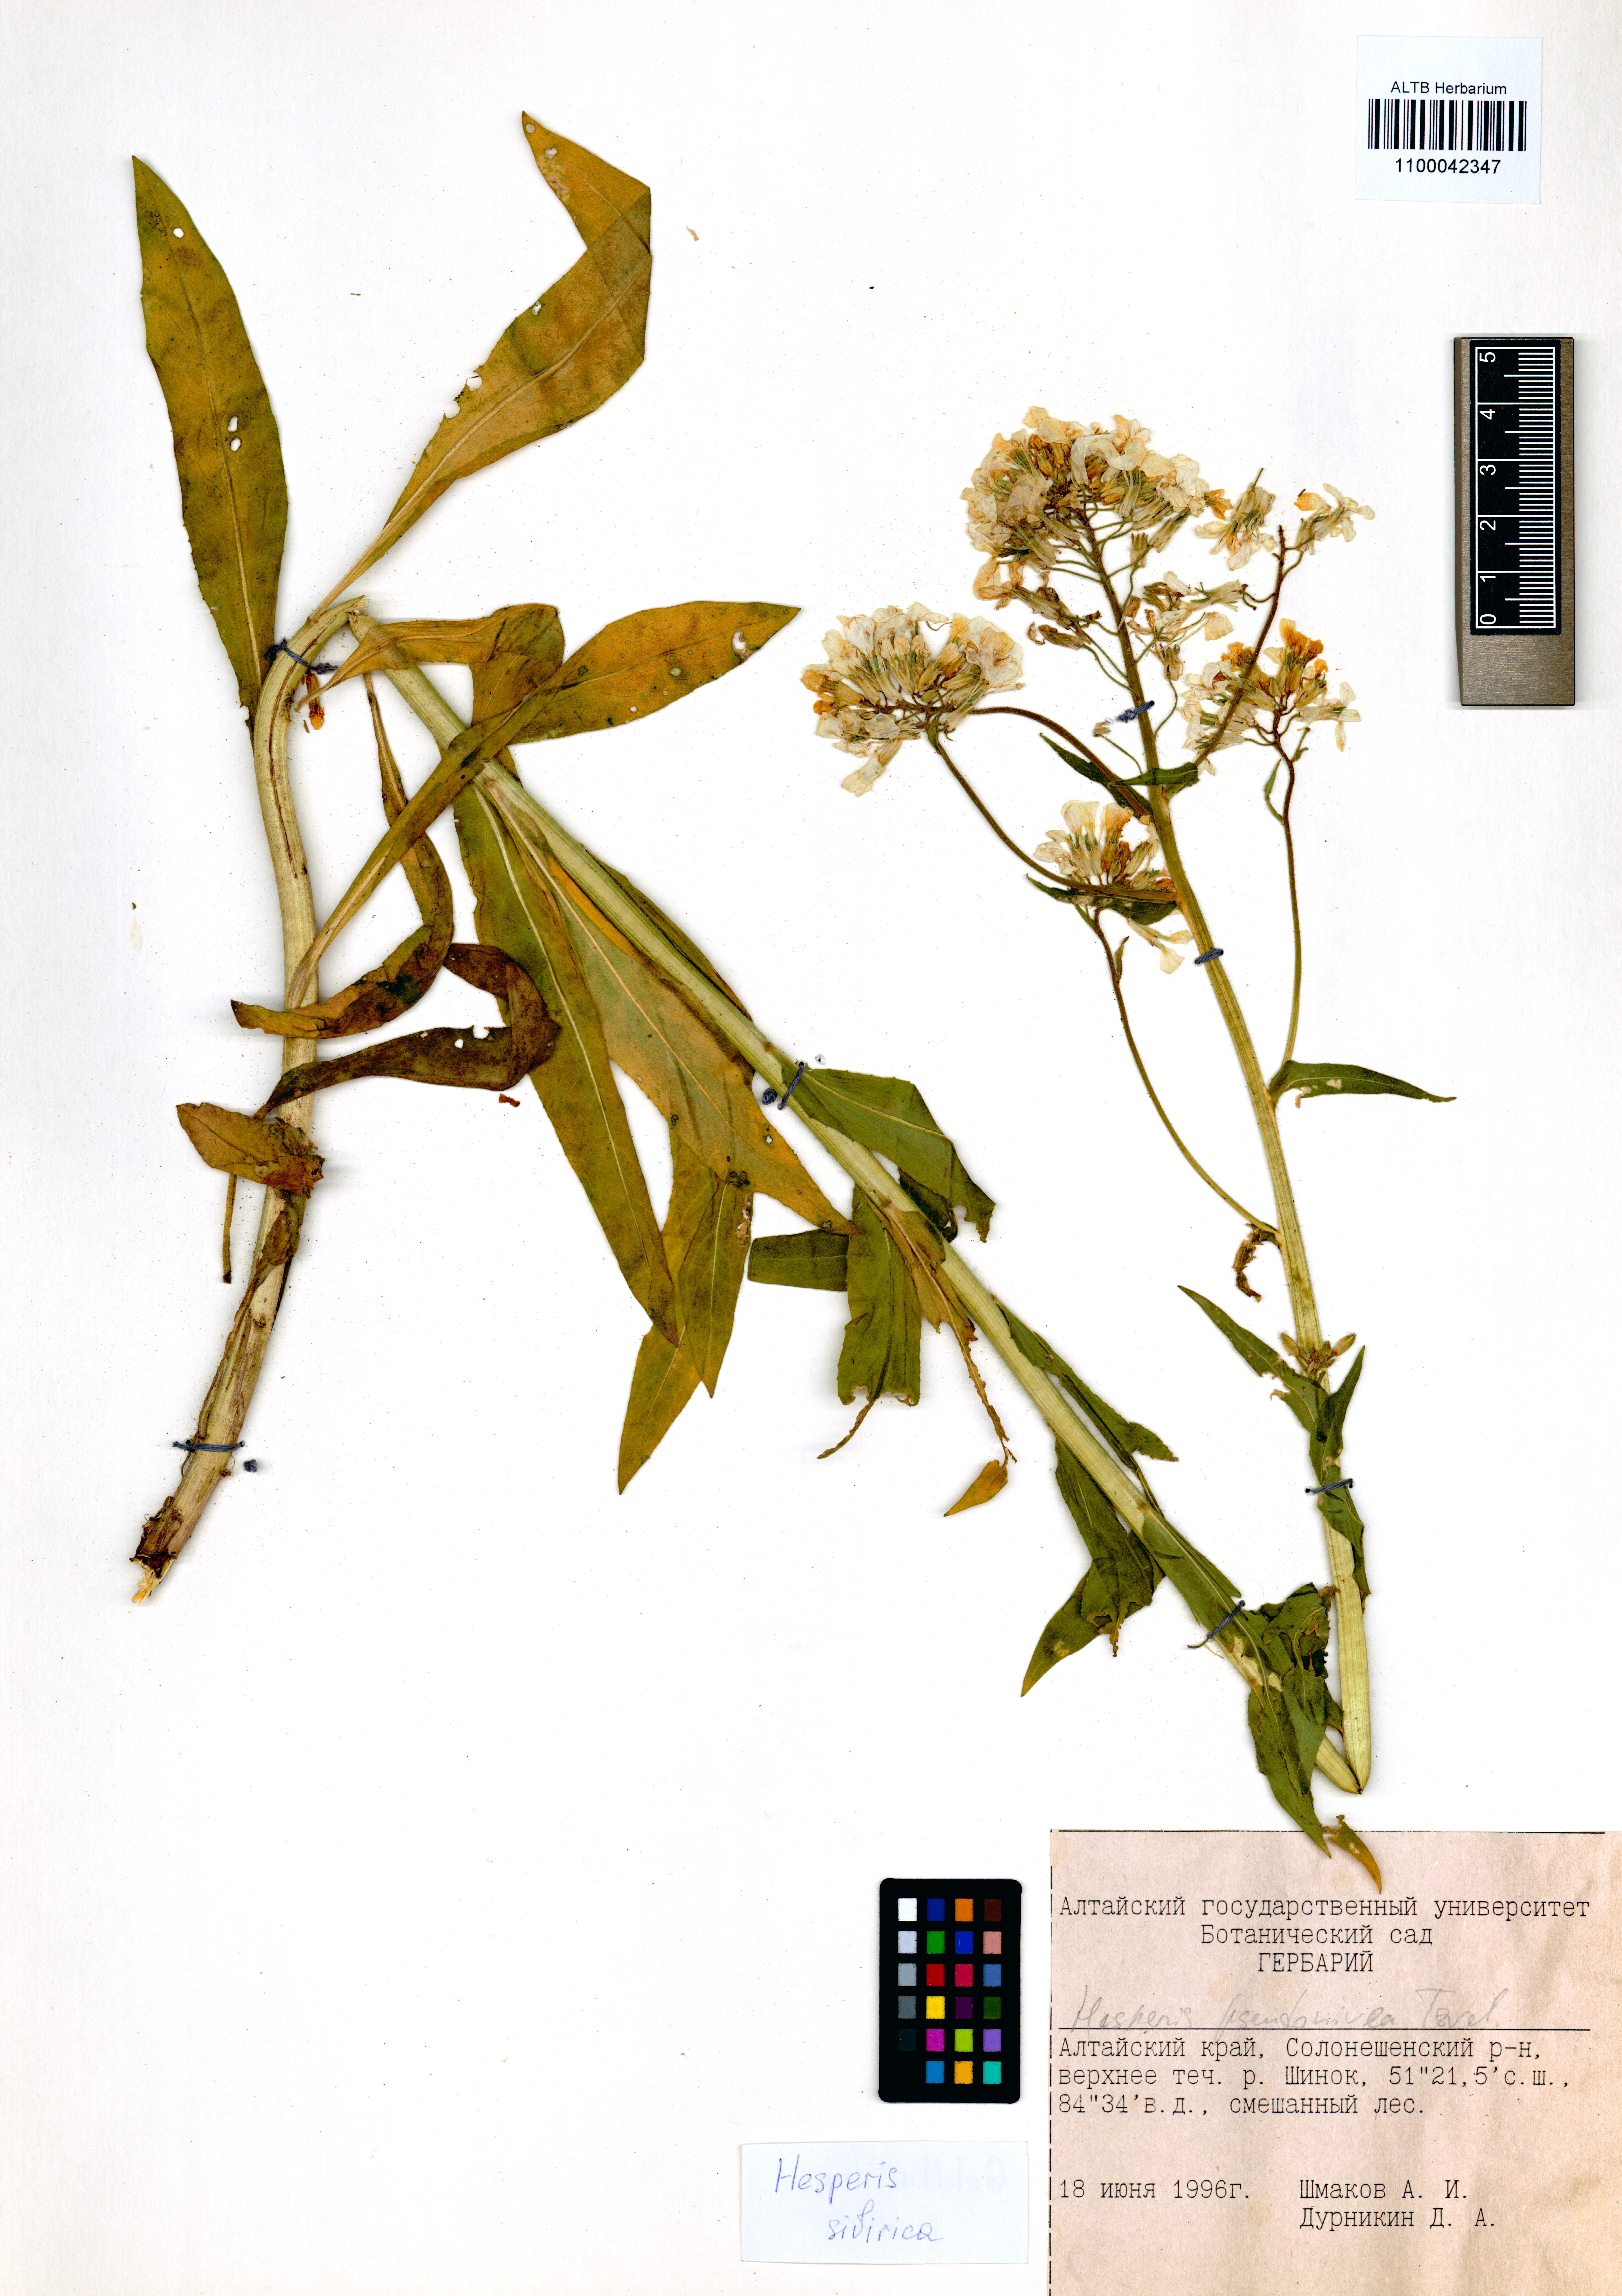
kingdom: Plantae
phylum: Tracheophyta
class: Magnoliopsida
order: Brassicales
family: Brassicaceae
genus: Hesperis
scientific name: Hesperis sibirica
